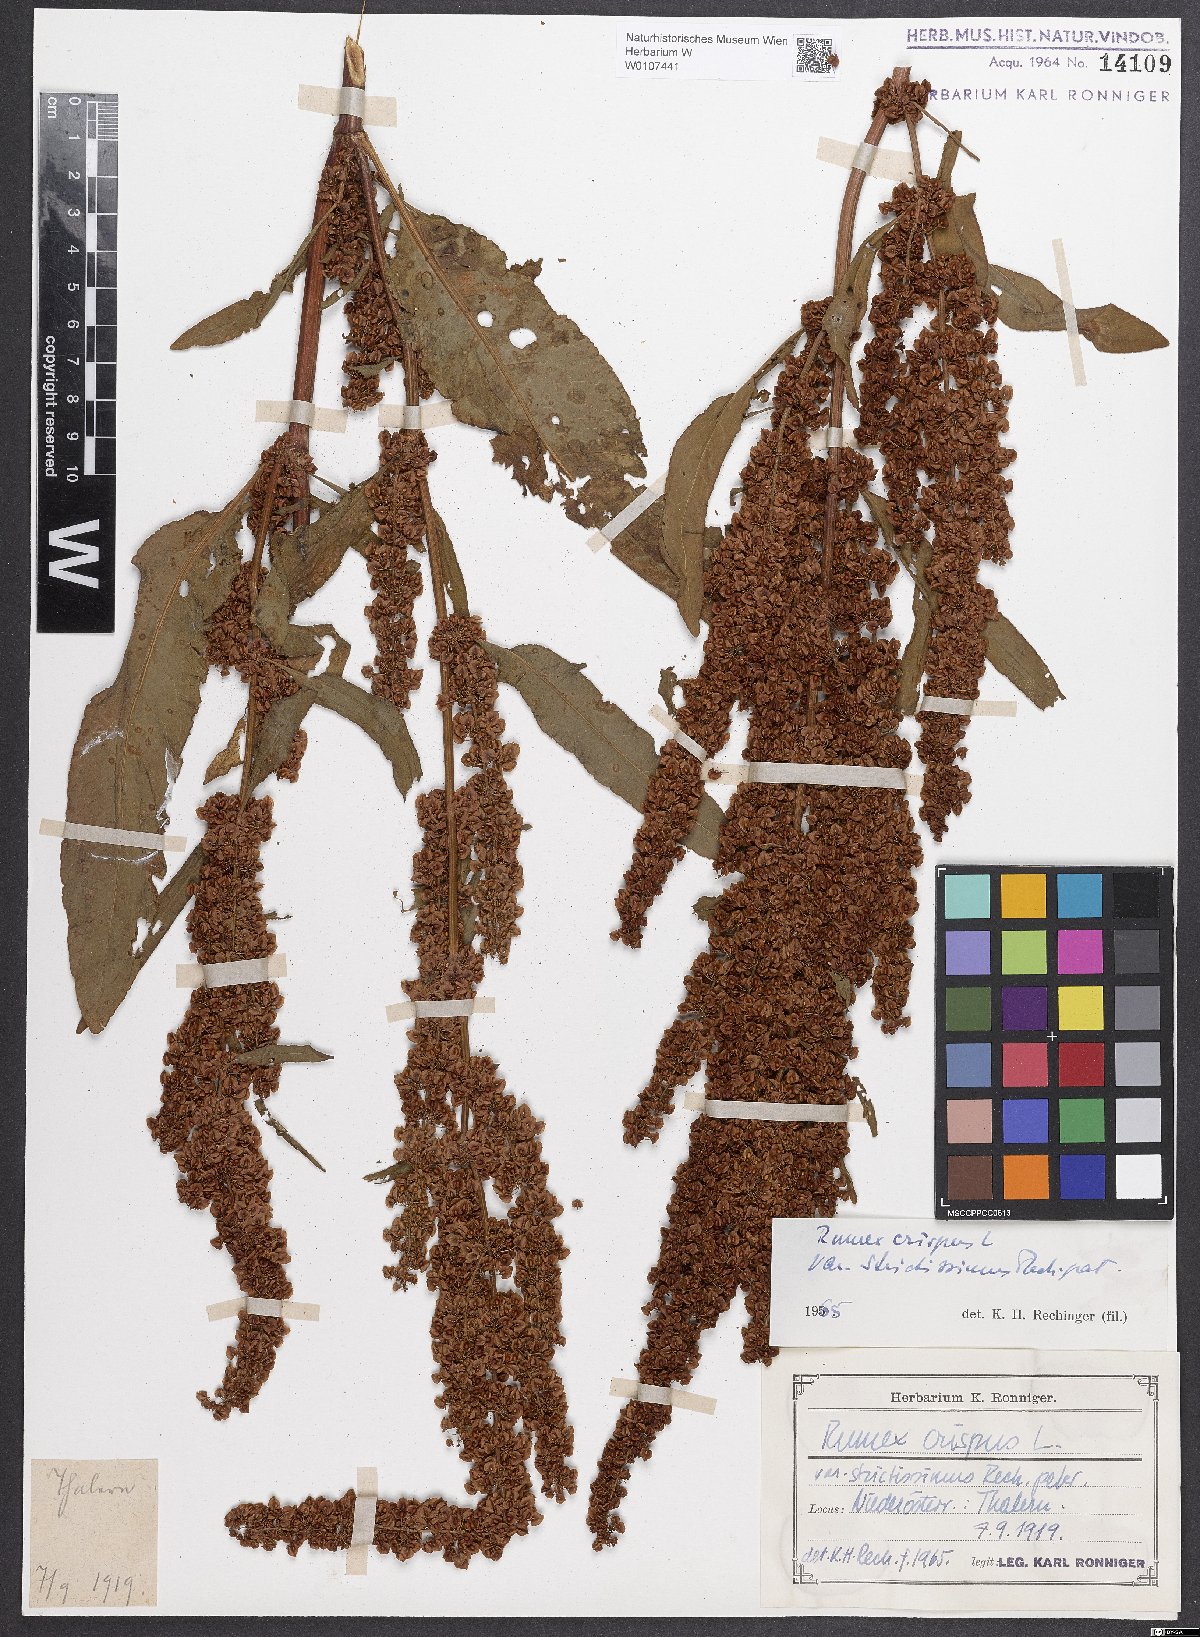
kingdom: Plantae
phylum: Tracheophyta
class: Magnoliopsida
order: Caryophyllales
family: Polygonaceae
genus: Rumex
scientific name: Rumex crispus
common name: Curled dock
